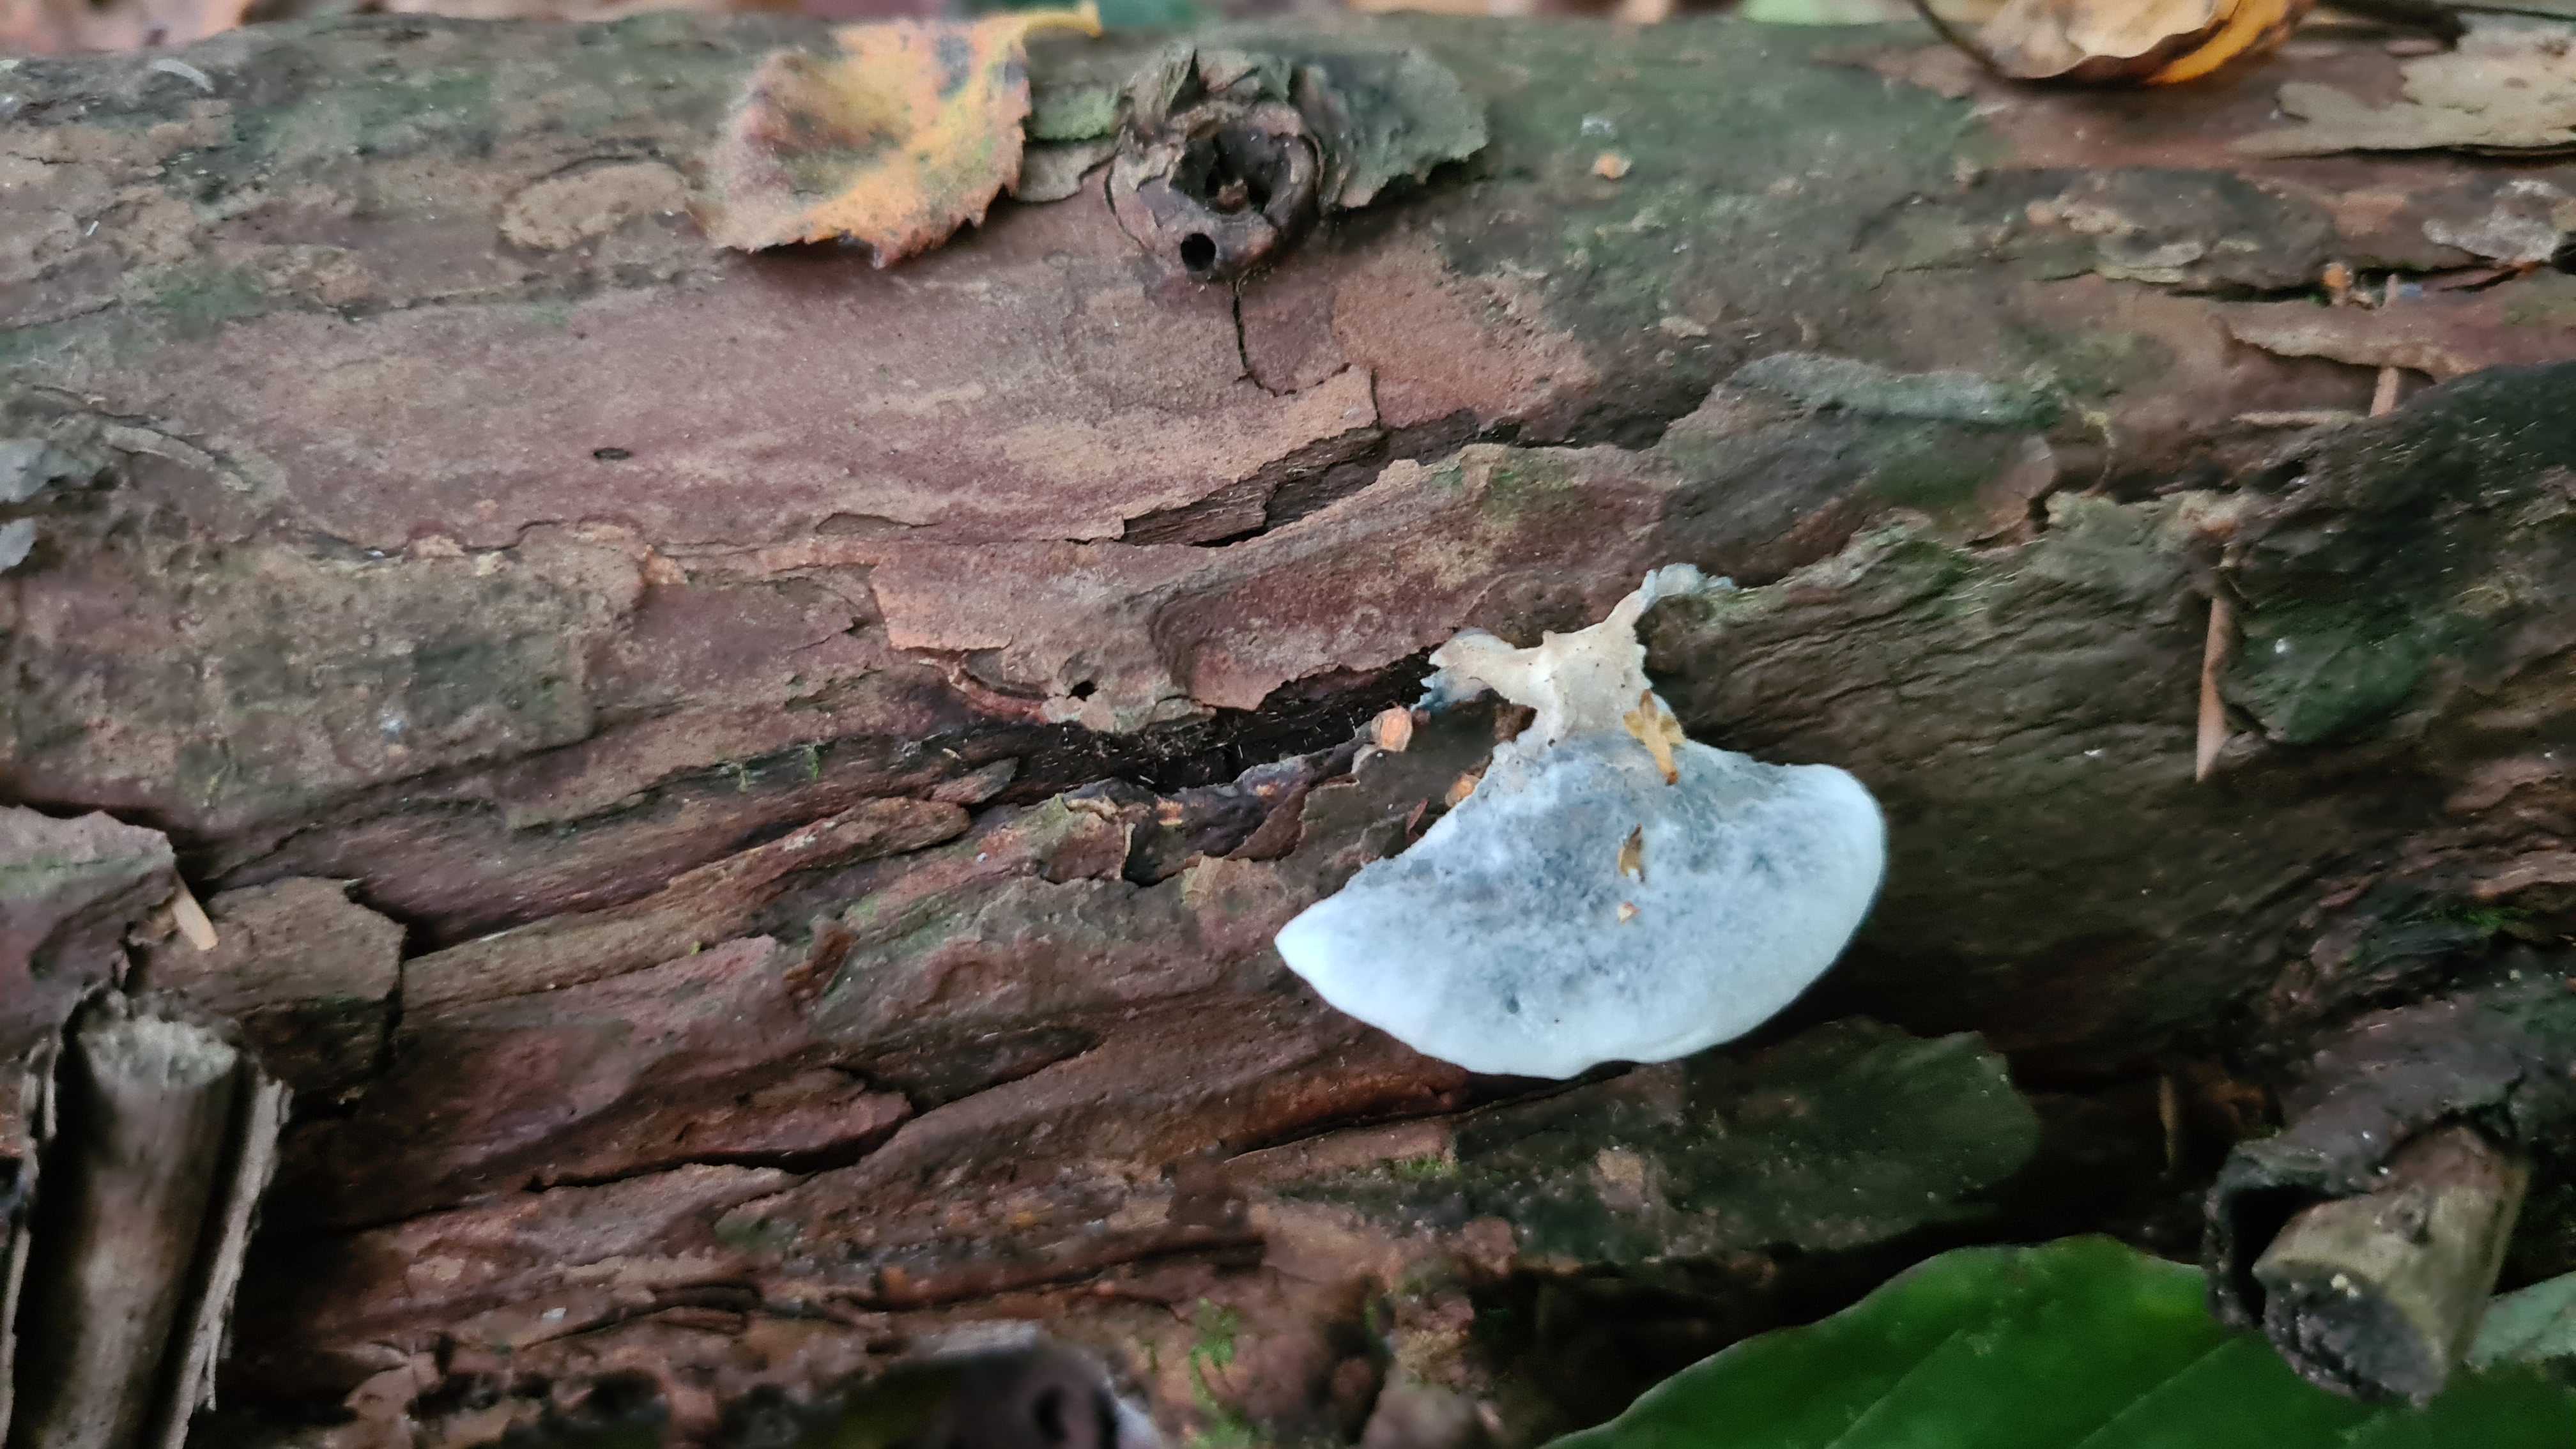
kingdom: Fungi
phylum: Basidiomycota
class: Agaricomycetes
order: Polyporales
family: Polyporaceae
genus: Cyanosporus
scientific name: Cyanosporus caesius
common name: blålig kødporesvamp
